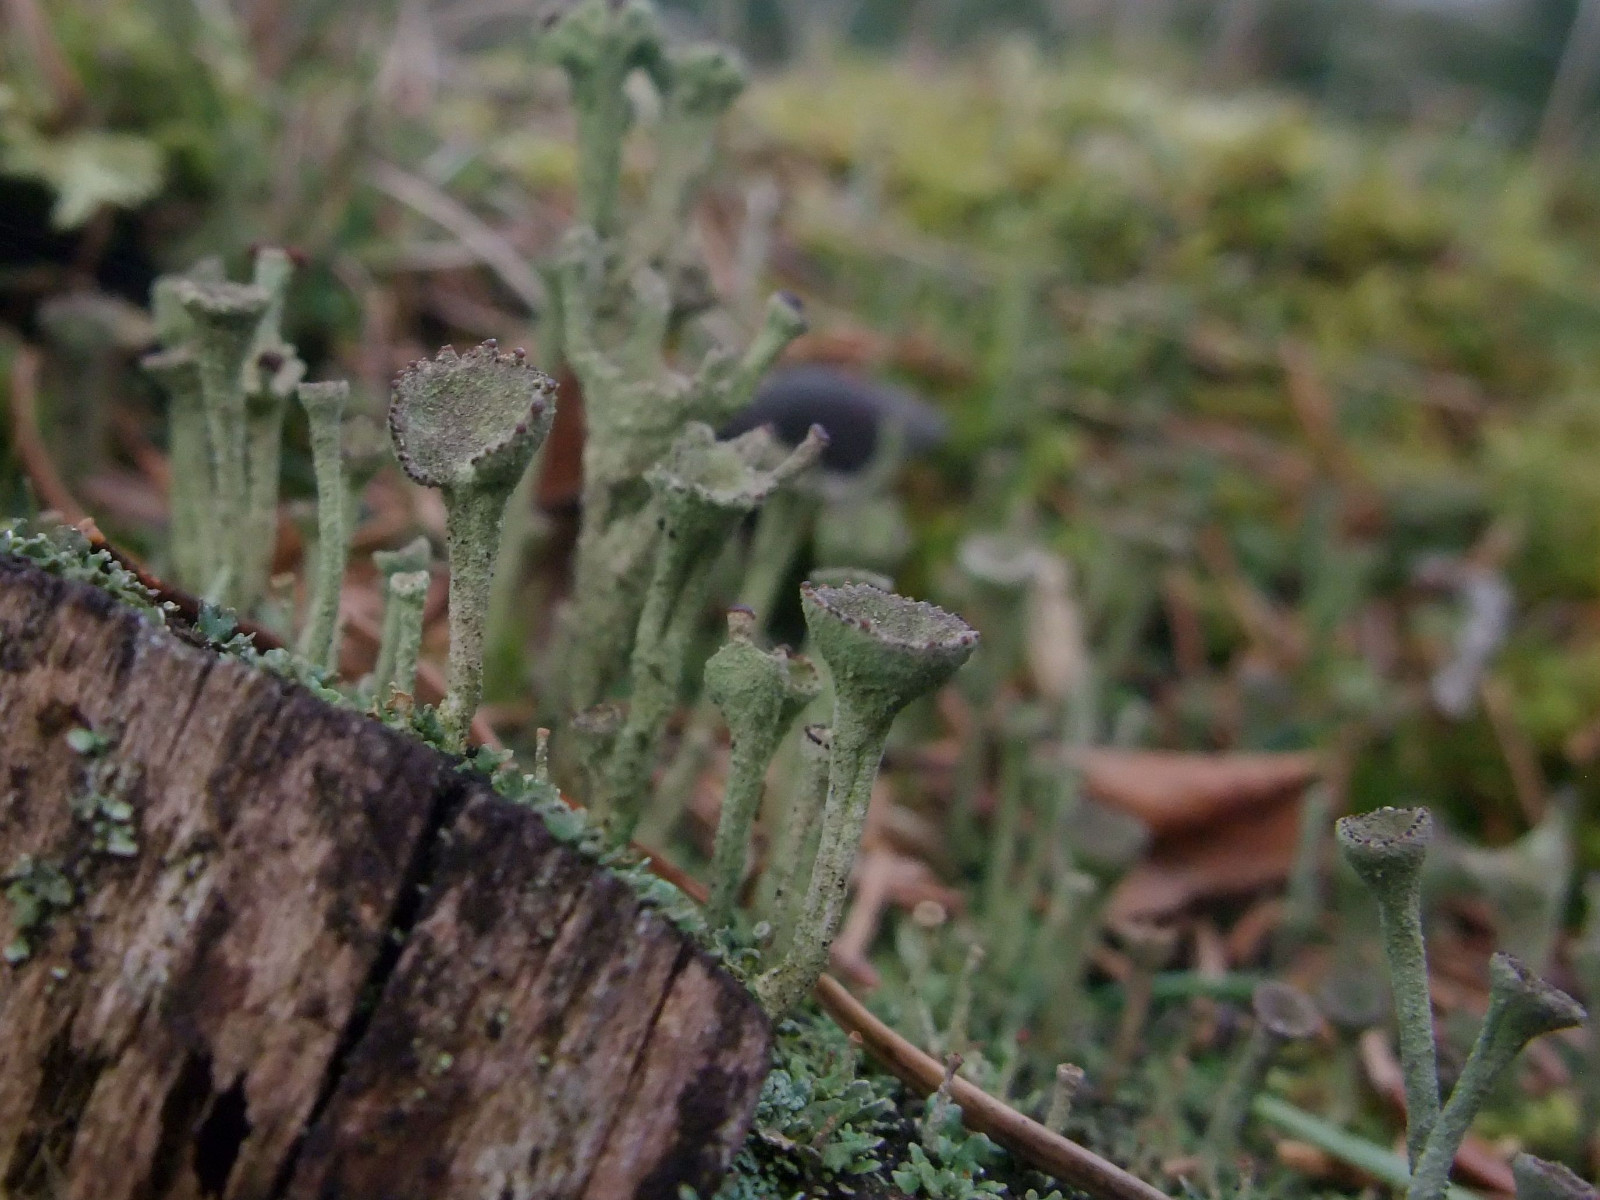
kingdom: Fungi
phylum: Ascomycota
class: Lecanoromycetes
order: Lecanorales
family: Cladoniaceae
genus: Cladonia
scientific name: Cladonia
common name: brungrøn bægerlav
